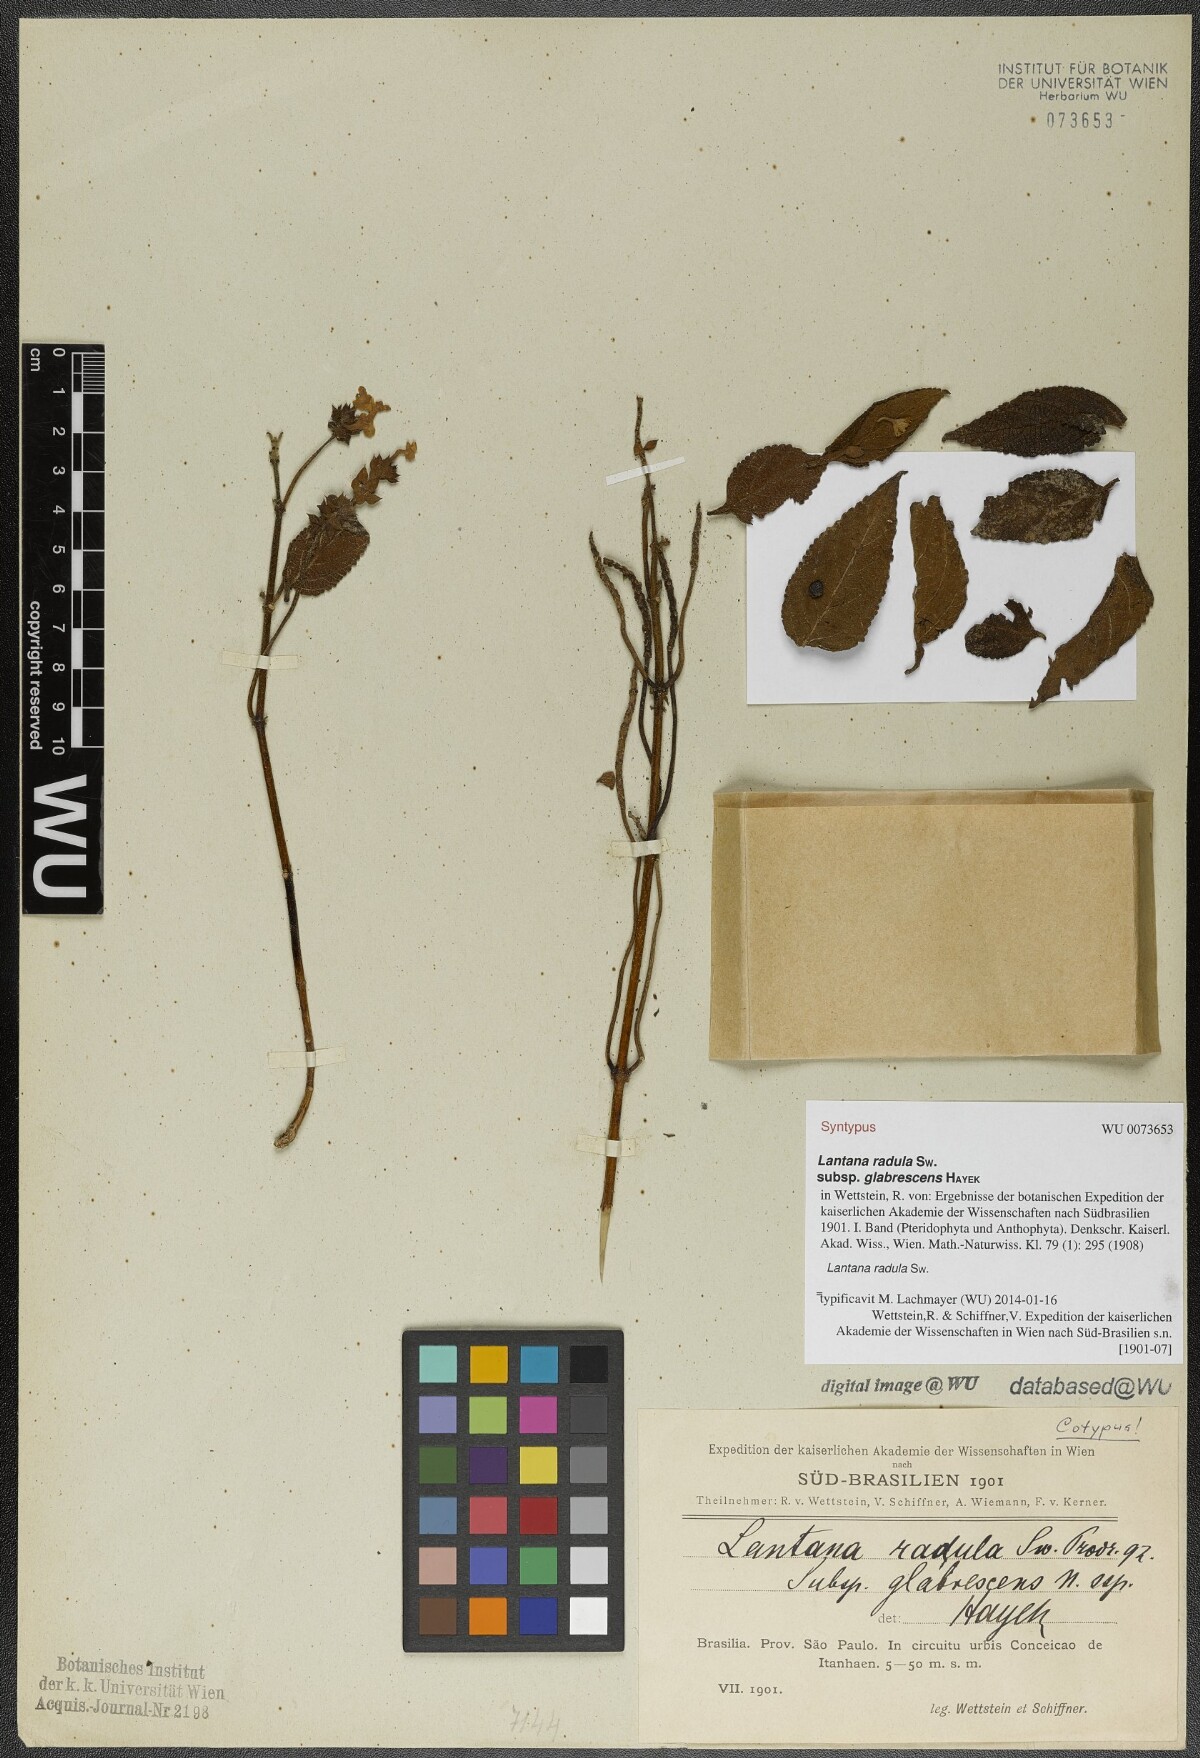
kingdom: Plantae
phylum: Tracheophyta
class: Magnoliopsida
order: Lamiales
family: Verbenaceae
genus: Lantana
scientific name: Lantana radula
